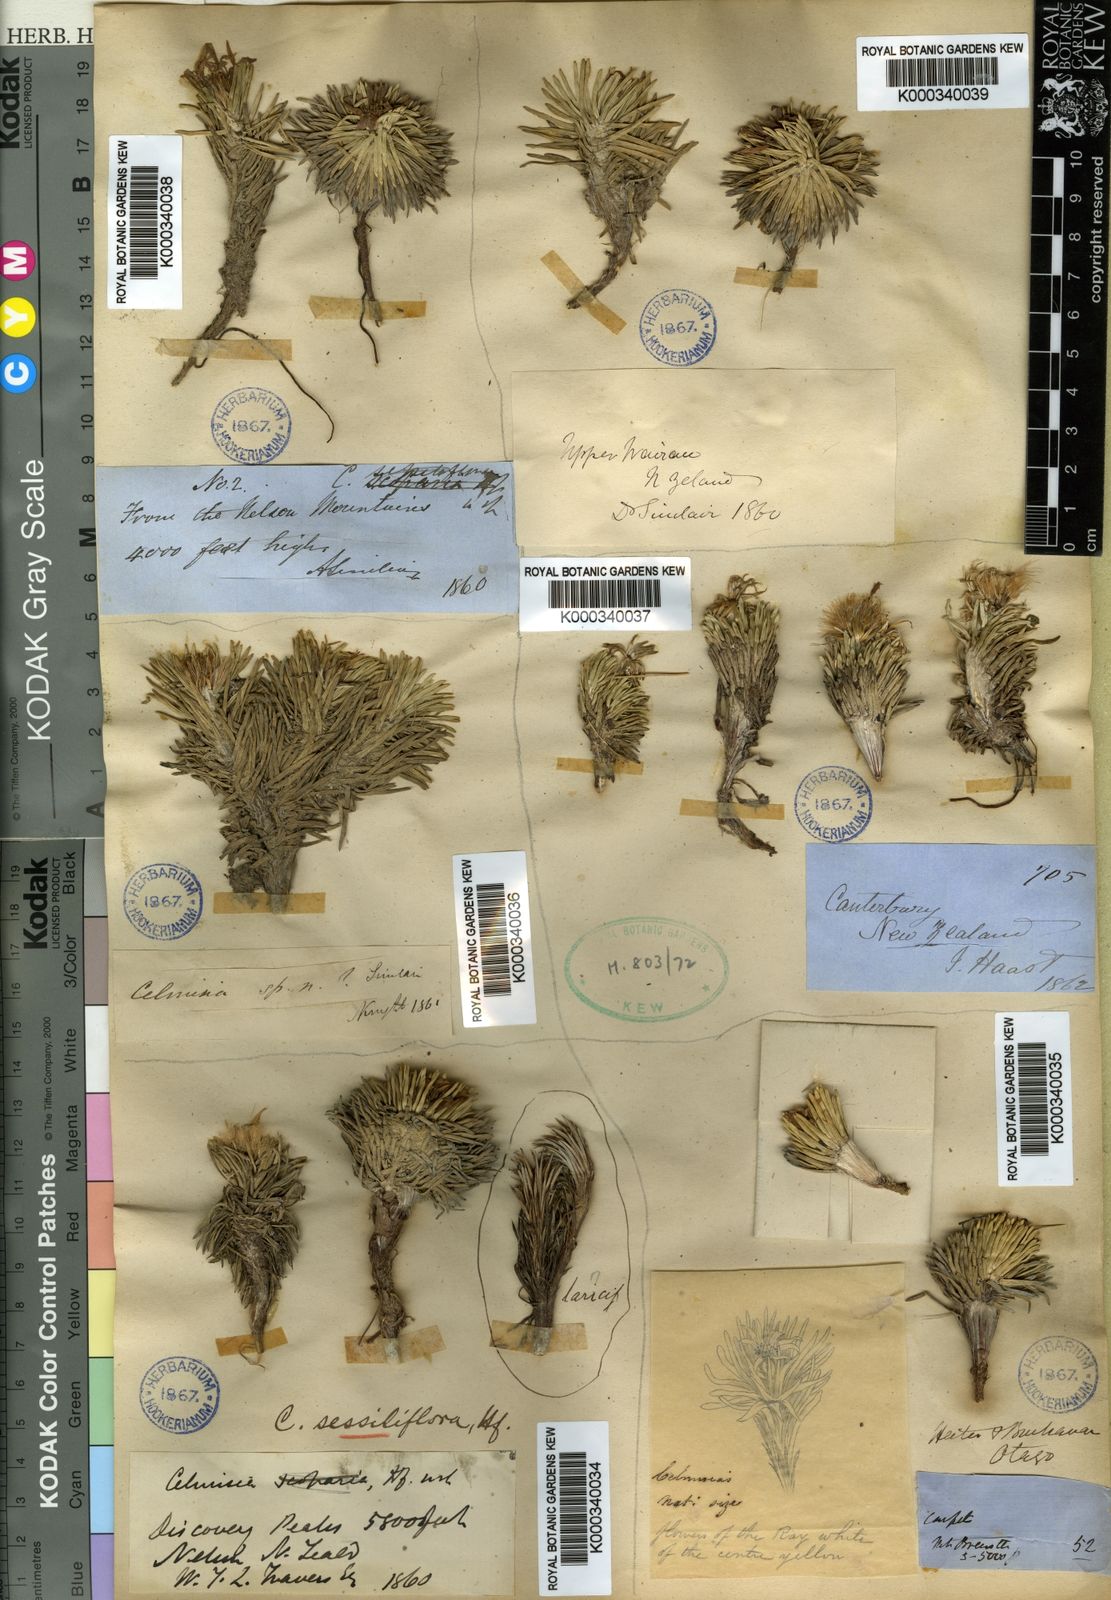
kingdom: Plantae
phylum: Tracheophyta
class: Magnoliopsida
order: Asterales
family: Asteraceae
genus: Celmisia
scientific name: Celmisia sessiliflora
